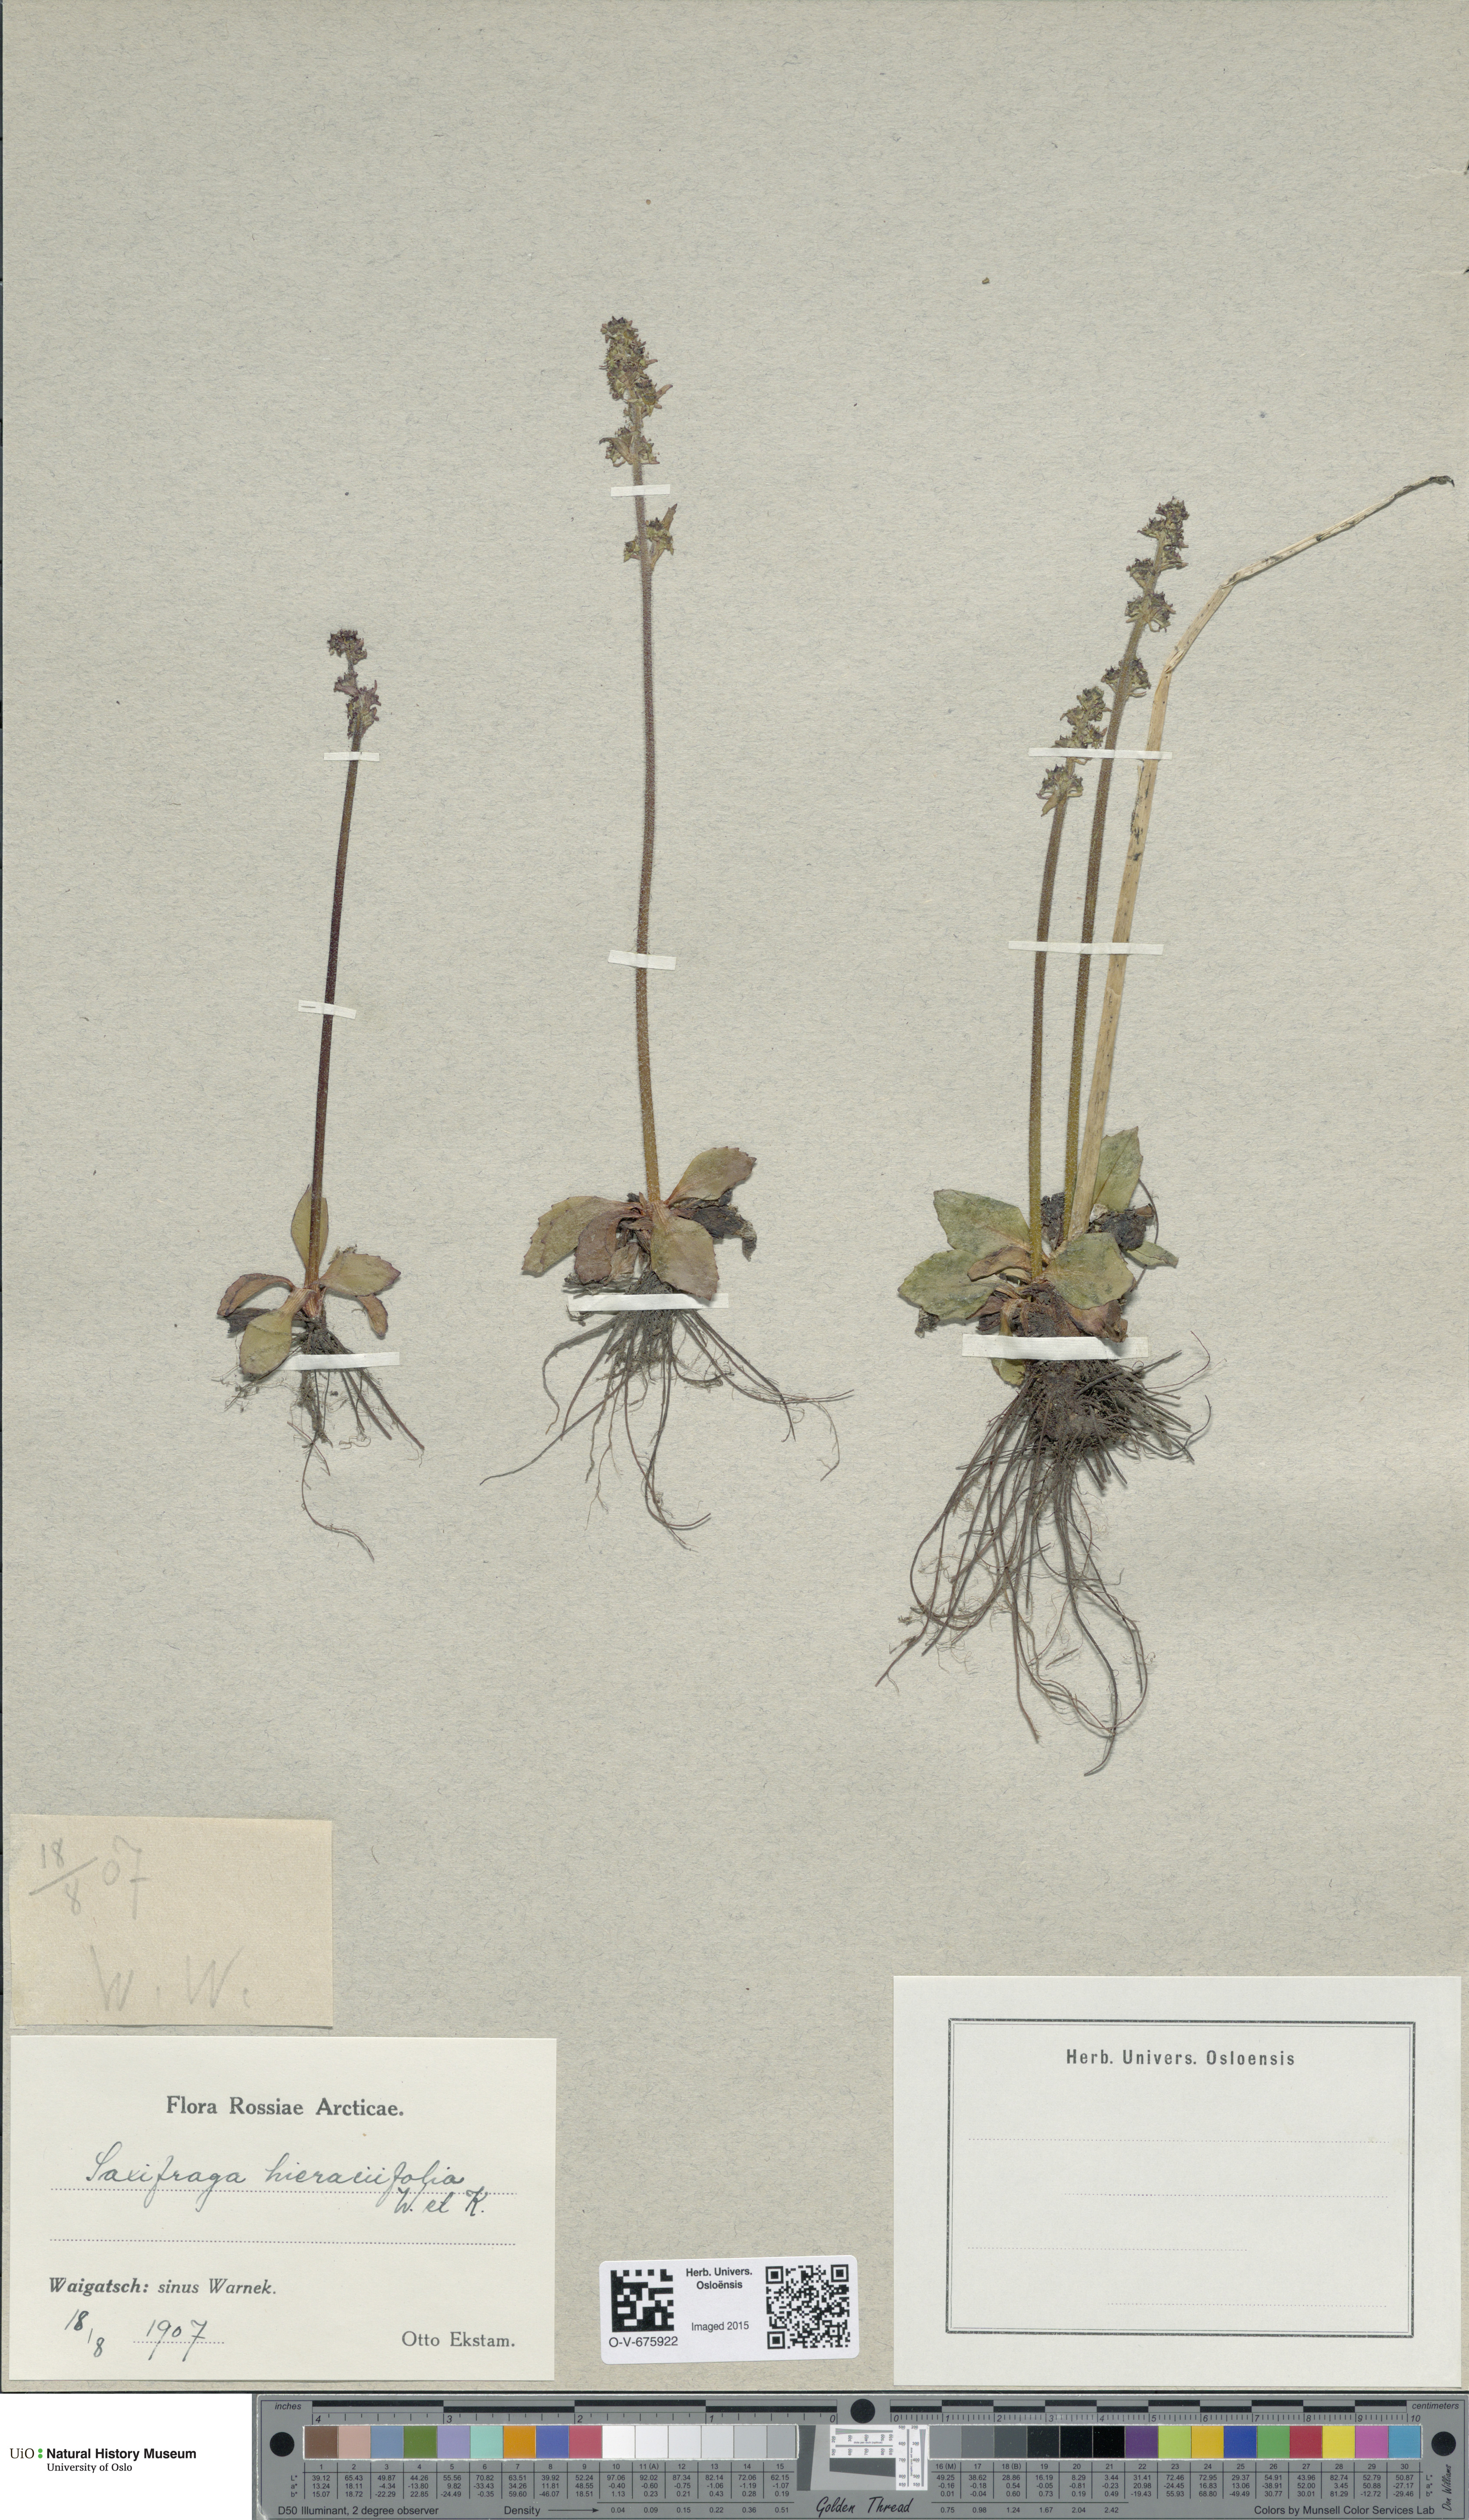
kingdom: Plantae
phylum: Tracheophyta
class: Magnoliopsida
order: Saxifragales
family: Saxifragaceae
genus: Micranthes
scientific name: Micranthes hieraciifolia
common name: Hawkweed-leaved saxifrage
